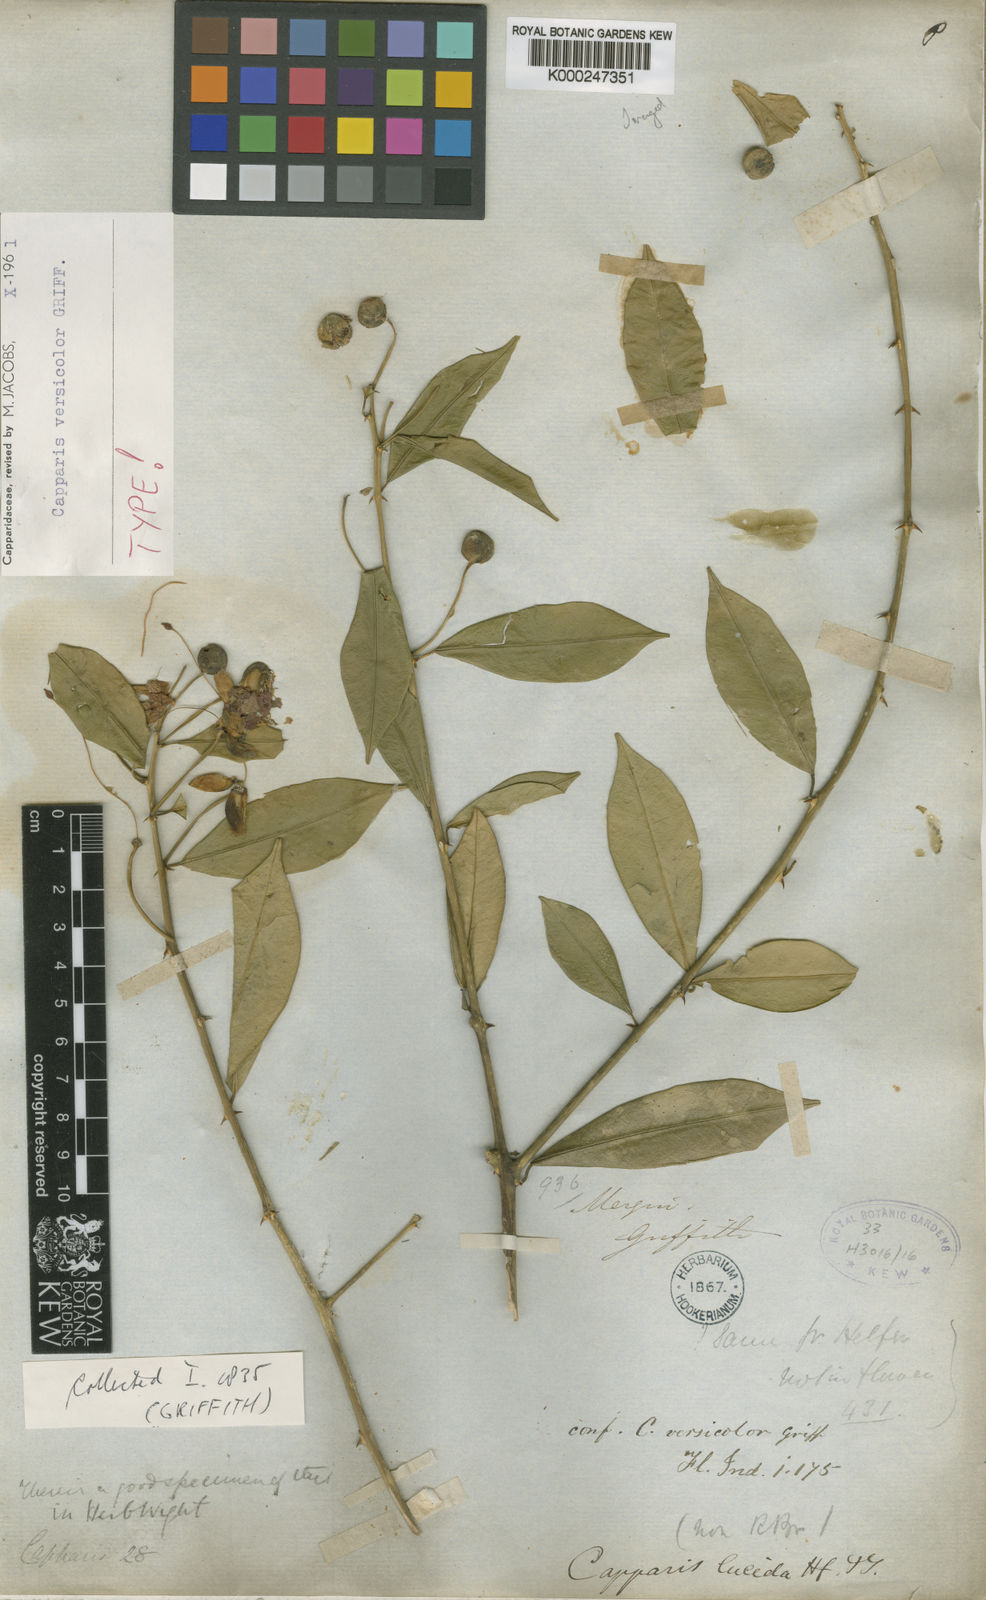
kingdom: Plantae
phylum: Tracheophyta
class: Magnoliopsida
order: Brassicales
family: Capparaceae
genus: Capparis
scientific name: Capparis versicolor
